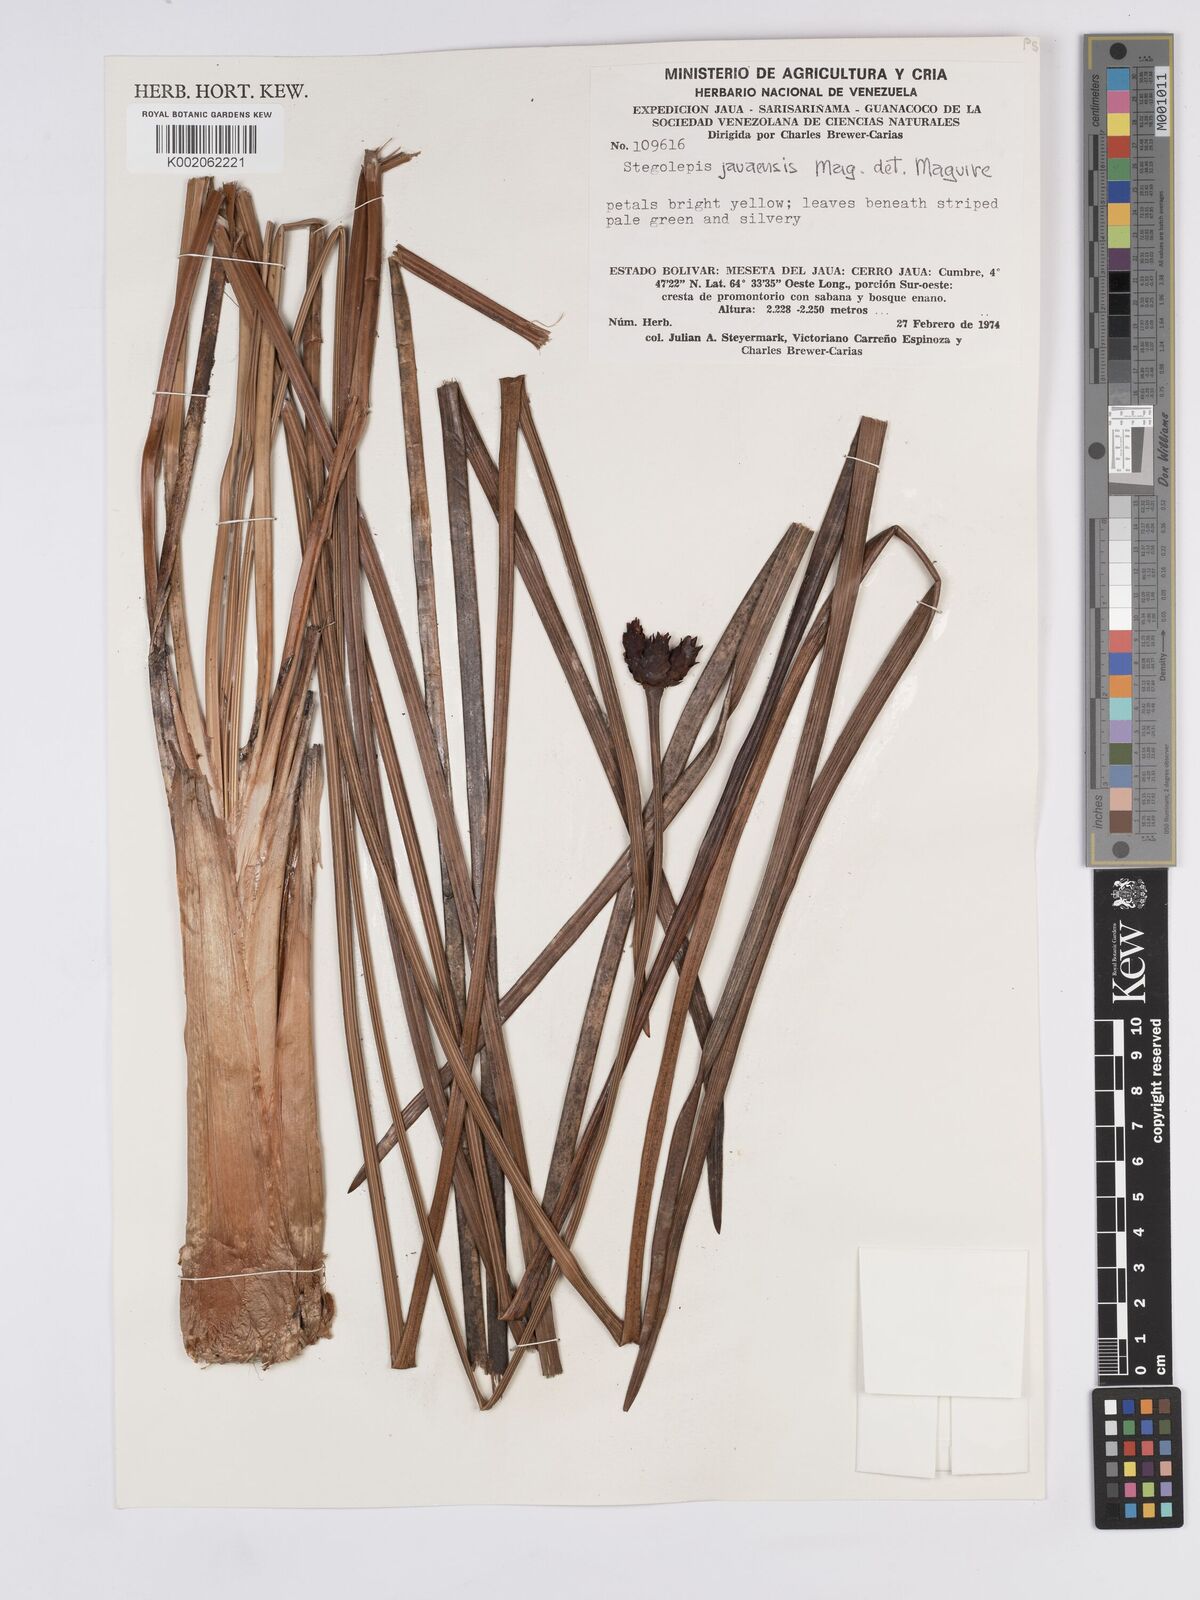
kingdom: Plantae
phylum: Tracheophyta
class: Liliopsida
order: Poales
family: Rapateaceae
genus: Stegolepis
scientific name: Stegolepis jauaensis
